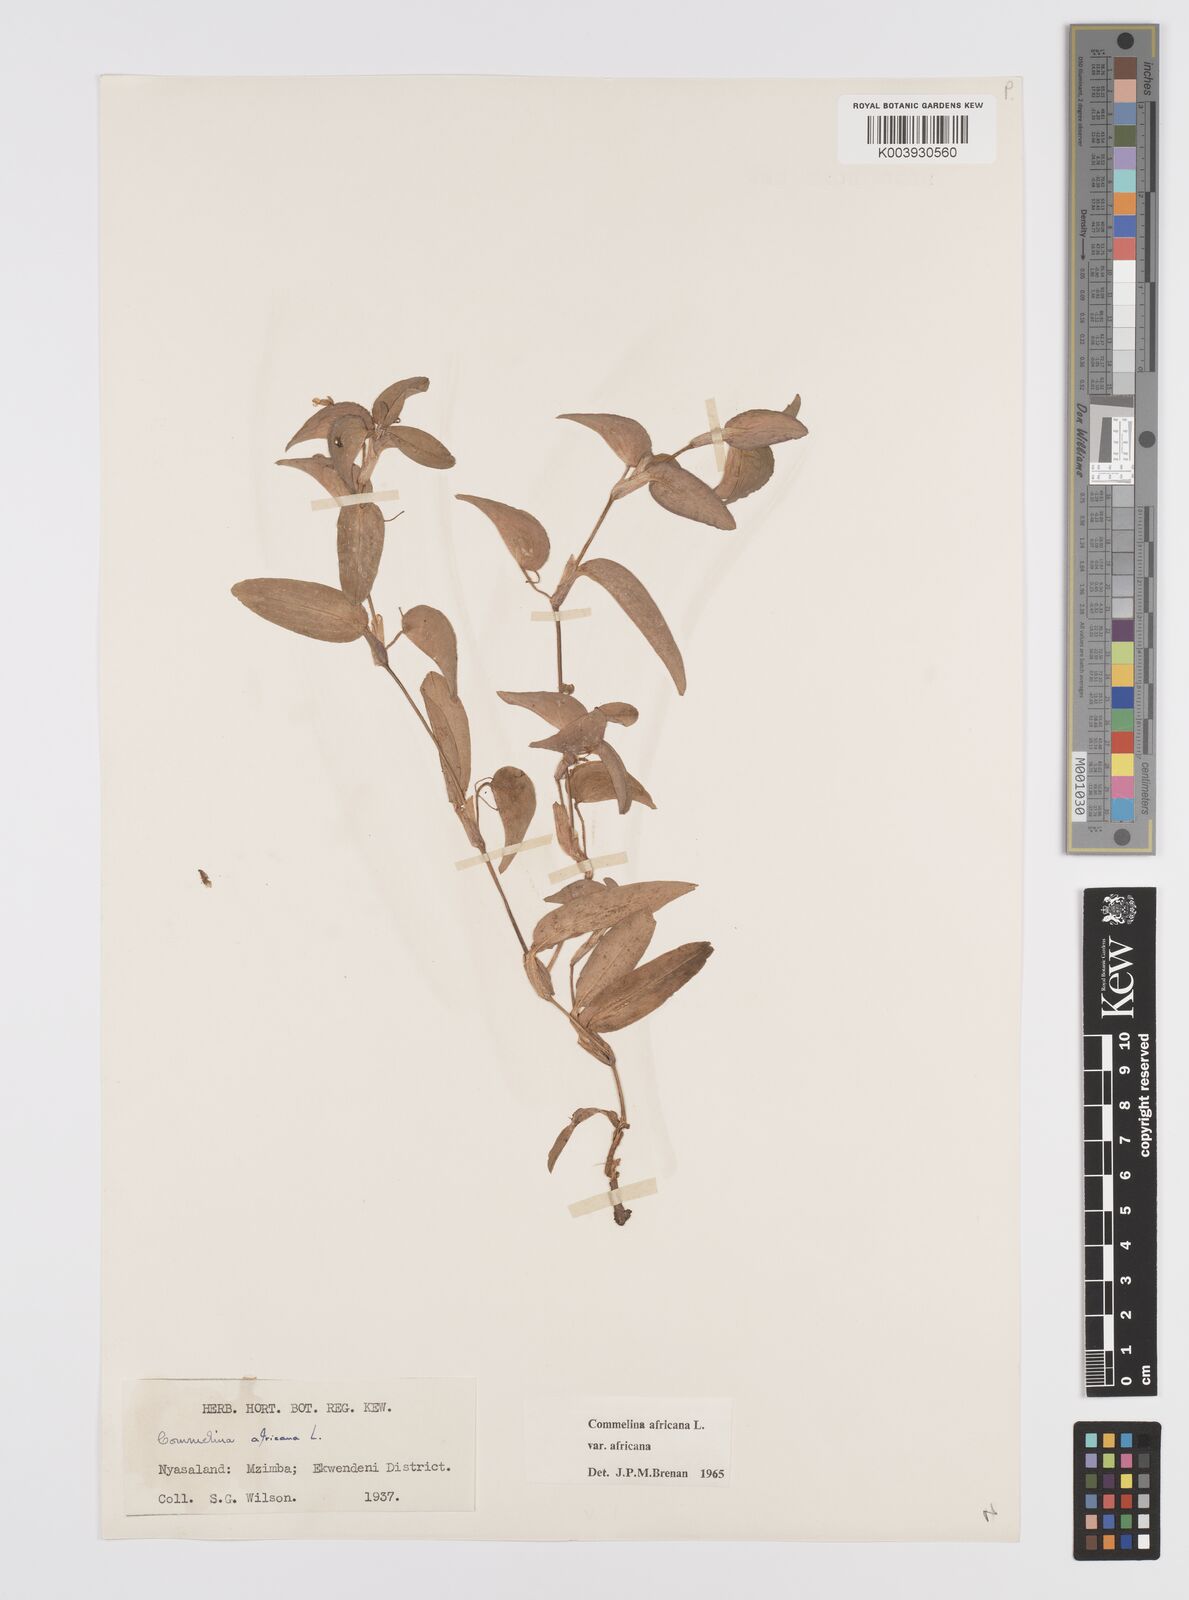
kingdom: Plantae
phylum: Tracheophyta
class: Liliopsida
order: Commelinales
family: Commelinaceae
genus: Commelina
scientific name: Commelina africana
